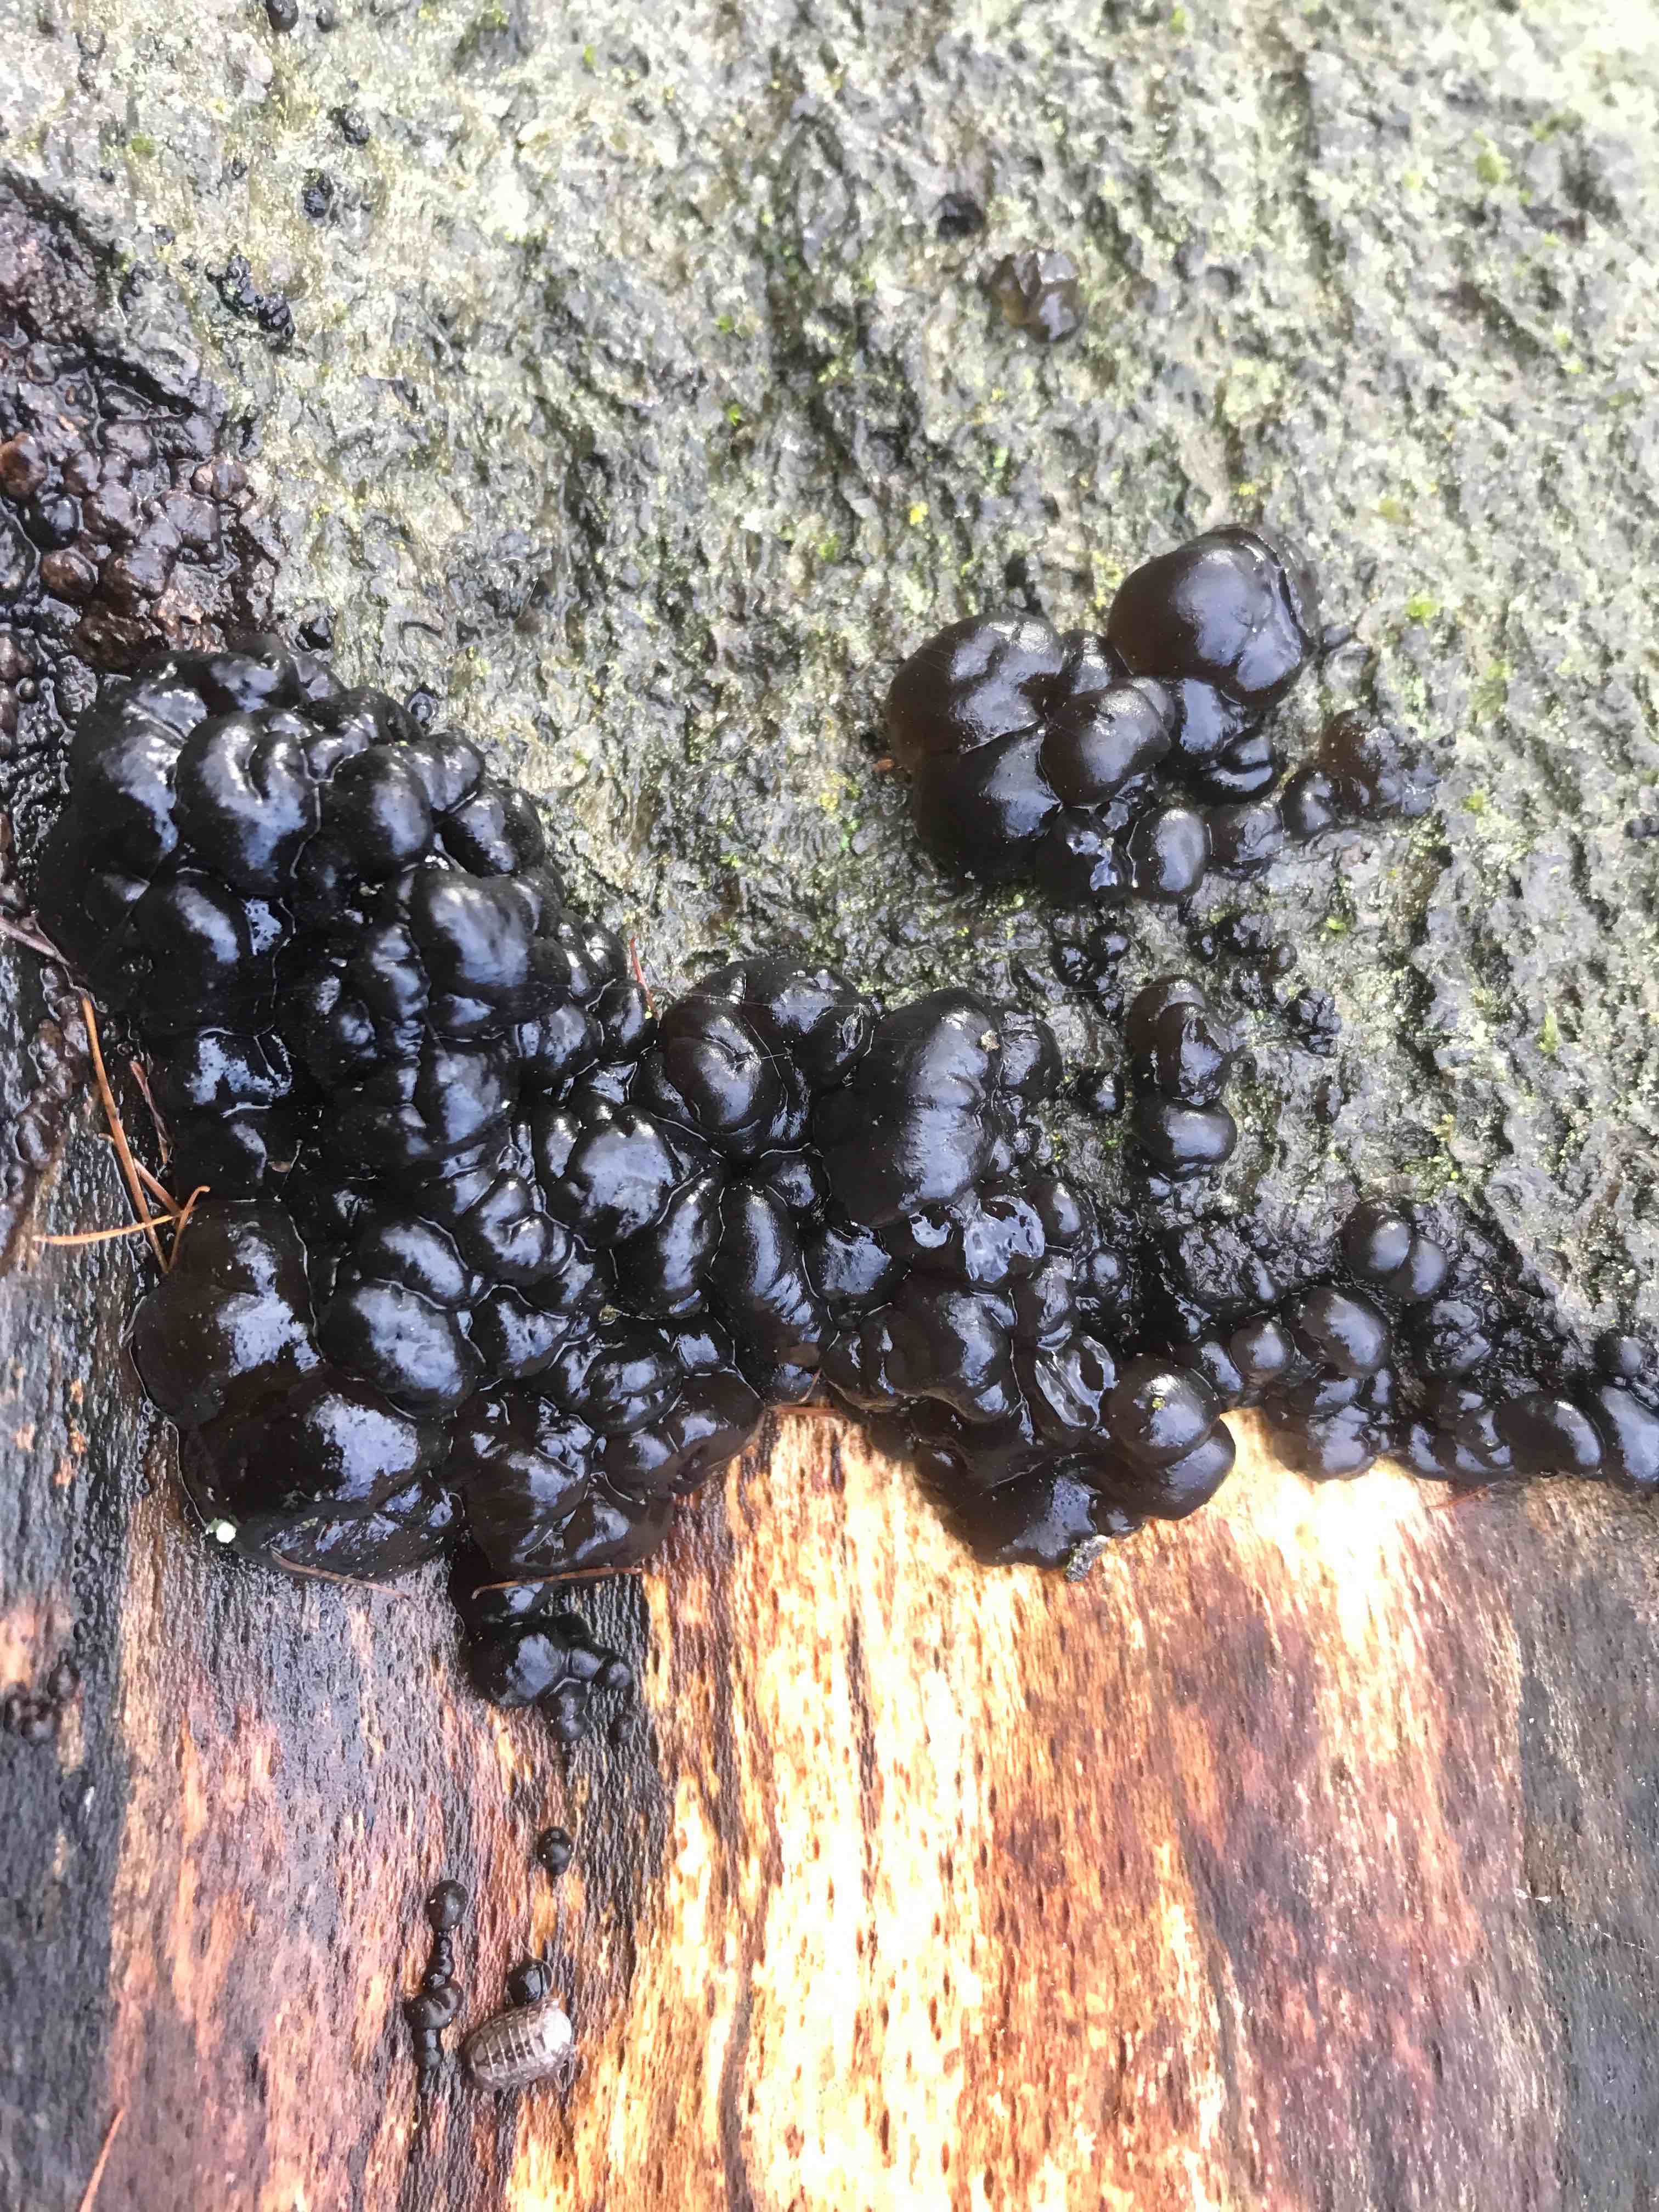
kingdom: Fungi
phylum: Basidiomycota
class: Agaricomycetes
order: Auriculariales
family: Auriculariaceae
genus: Exidia
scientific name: Exidia nigricans
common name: almindelig bævretop
